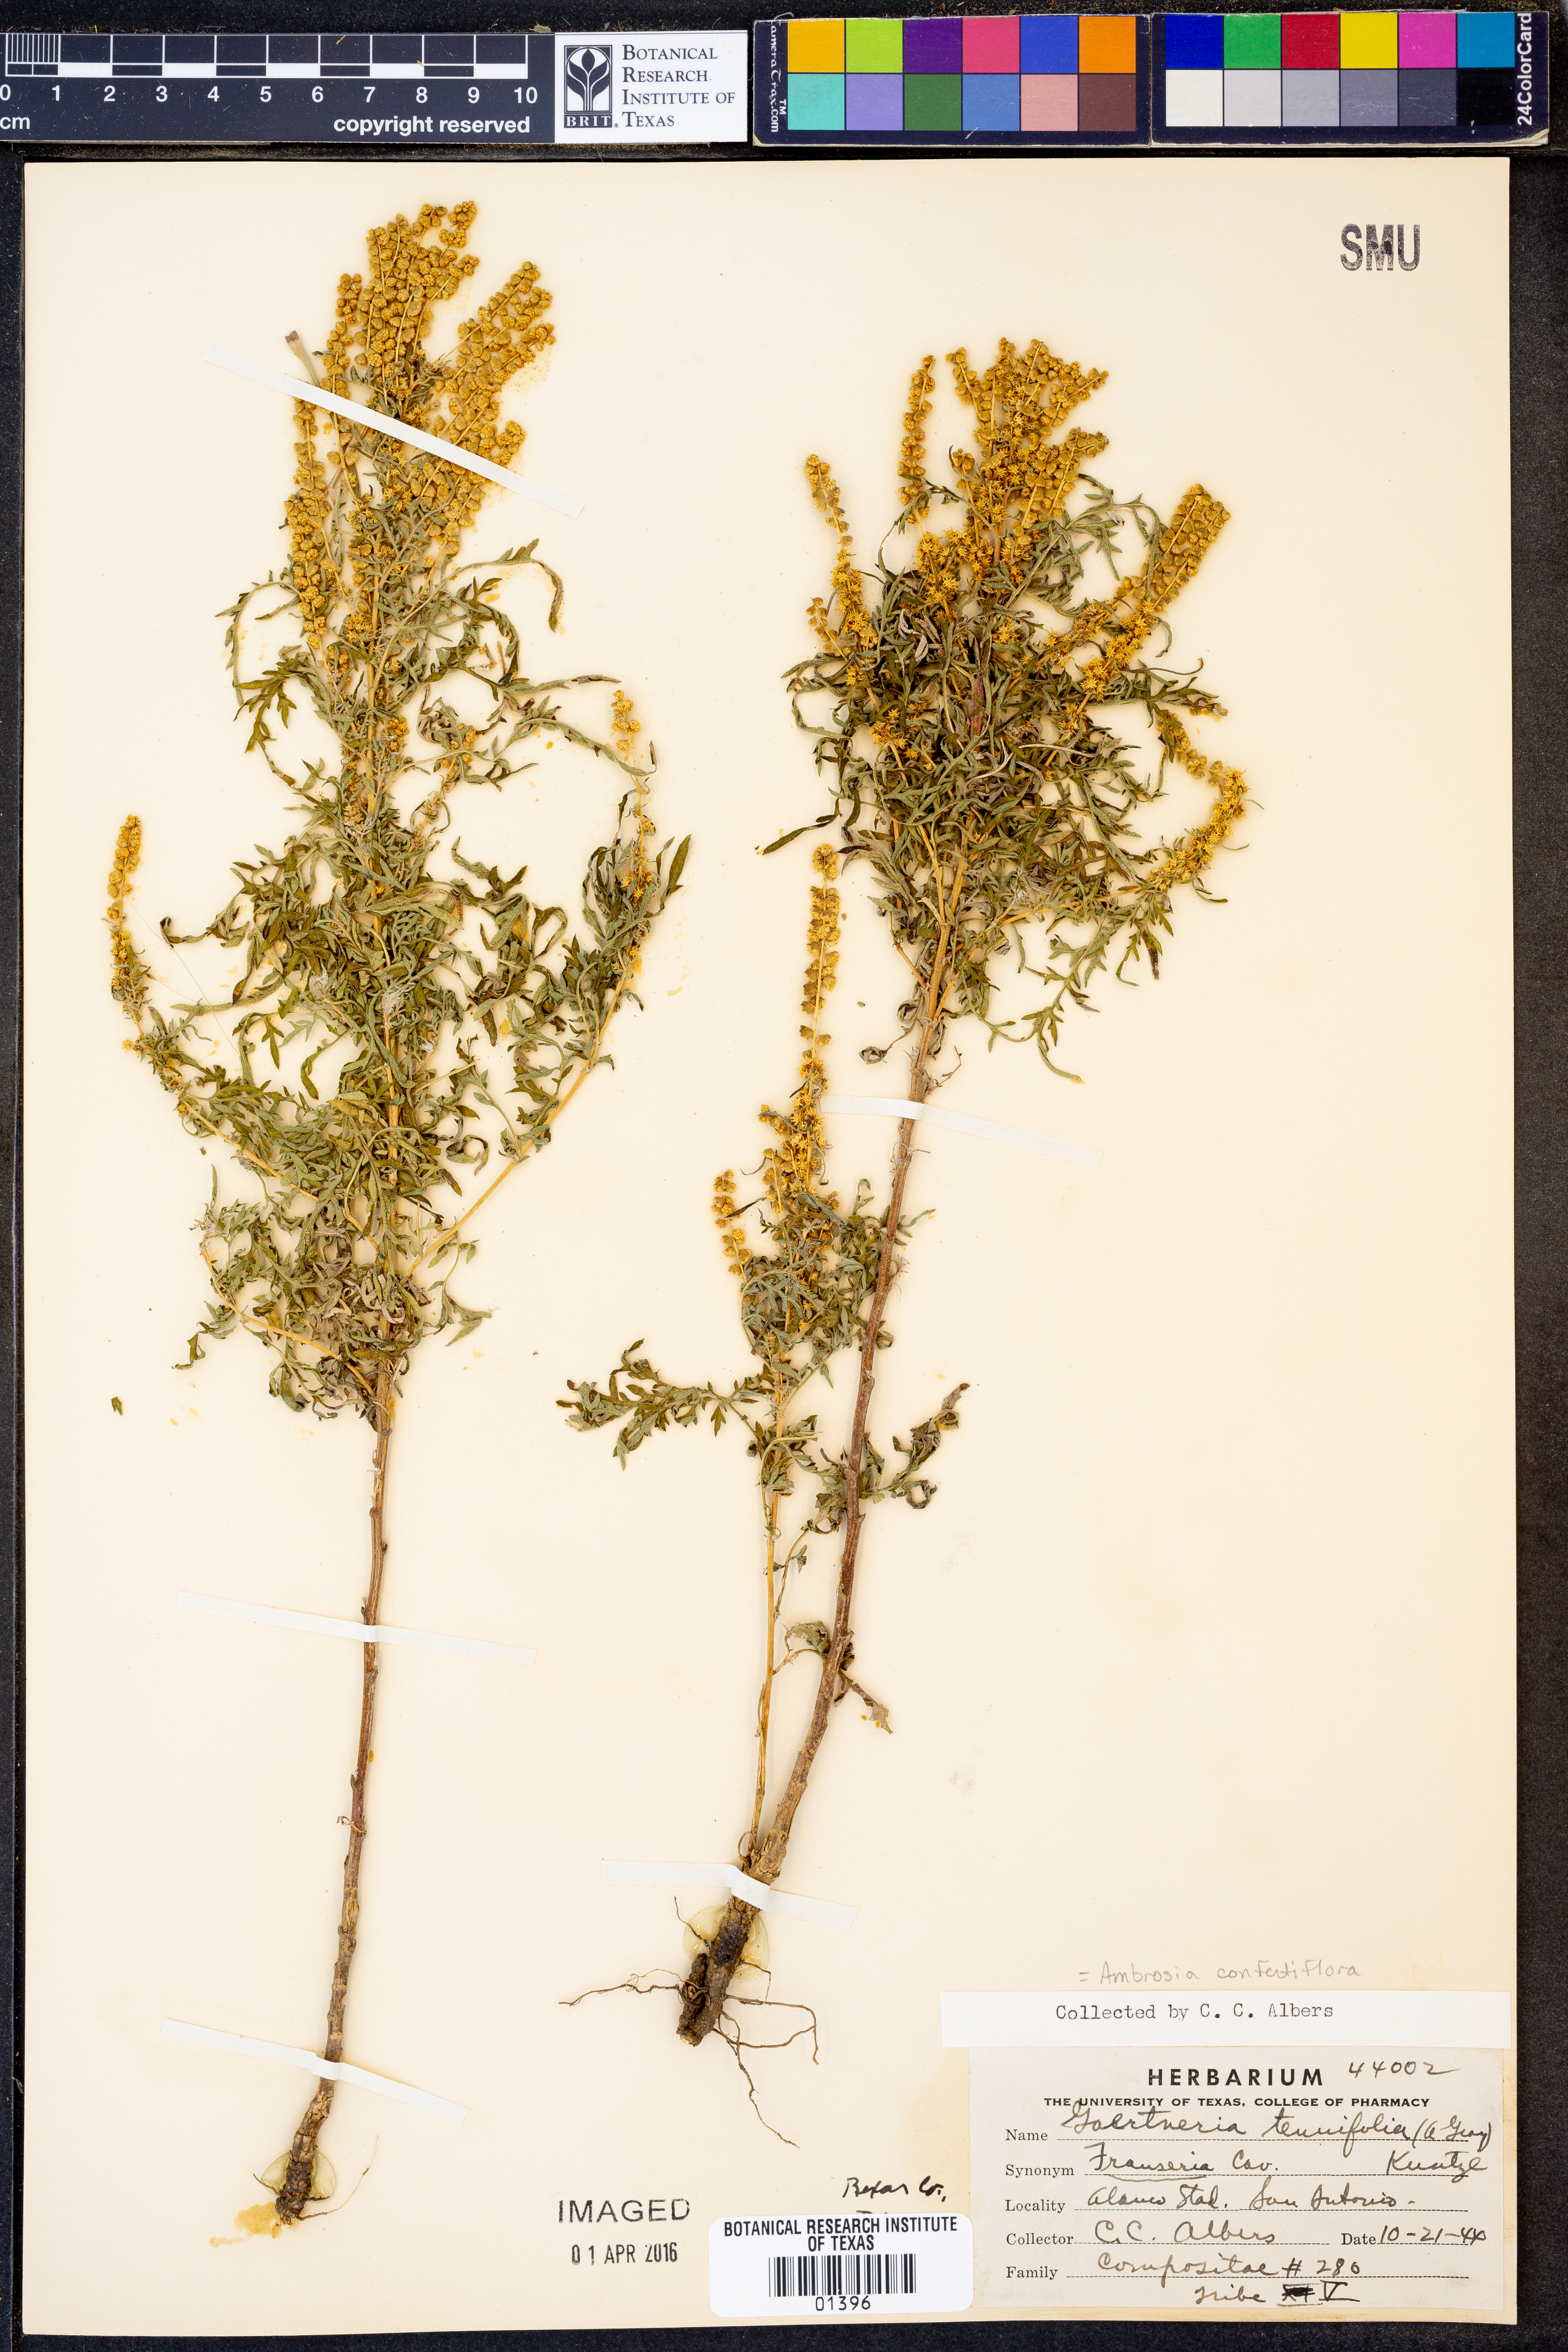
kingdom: Plantae
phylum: Tracheophyta
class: Magnoliopsida
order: Asterales
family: Asteraceae
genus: Ambrosia
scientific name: Ambrosia confertiflora
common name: Bur ragweed
